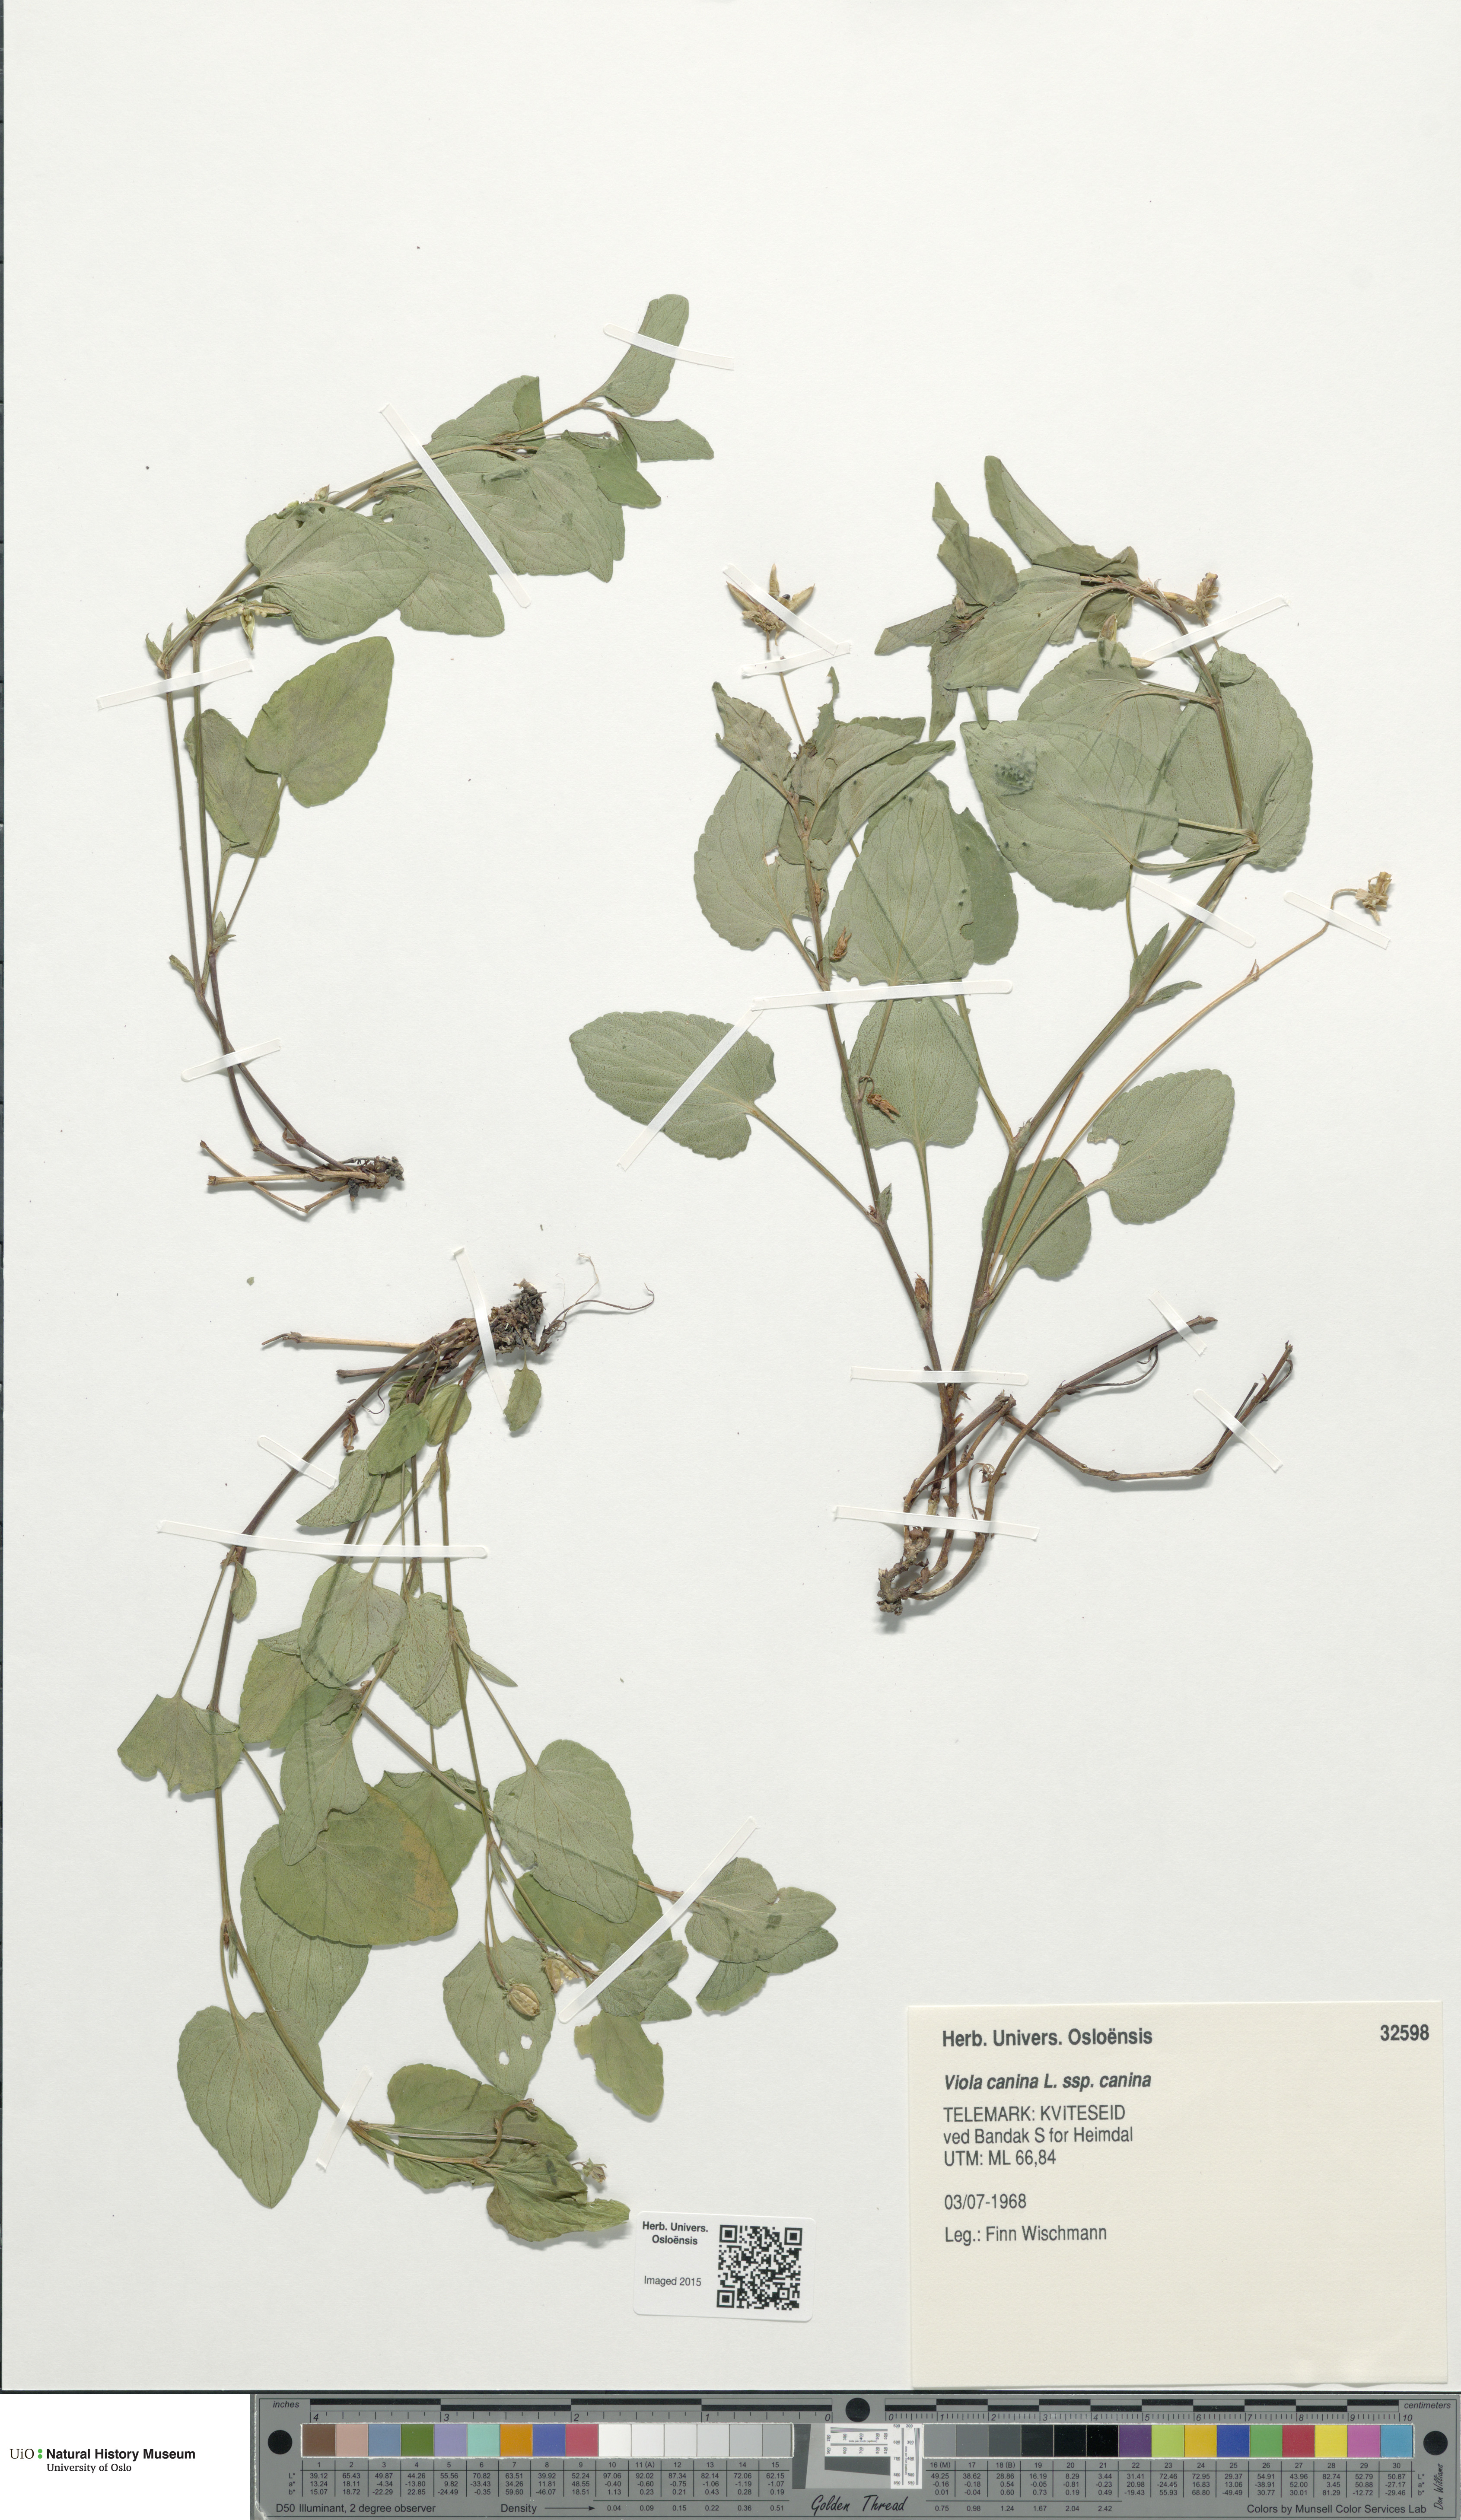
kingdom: Plantae
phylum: Tracheophyta
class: Magnoliopsida
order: Malpighiales
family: Violaceae
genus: Viola
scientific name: Viola canina
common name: Heath dog-violet
